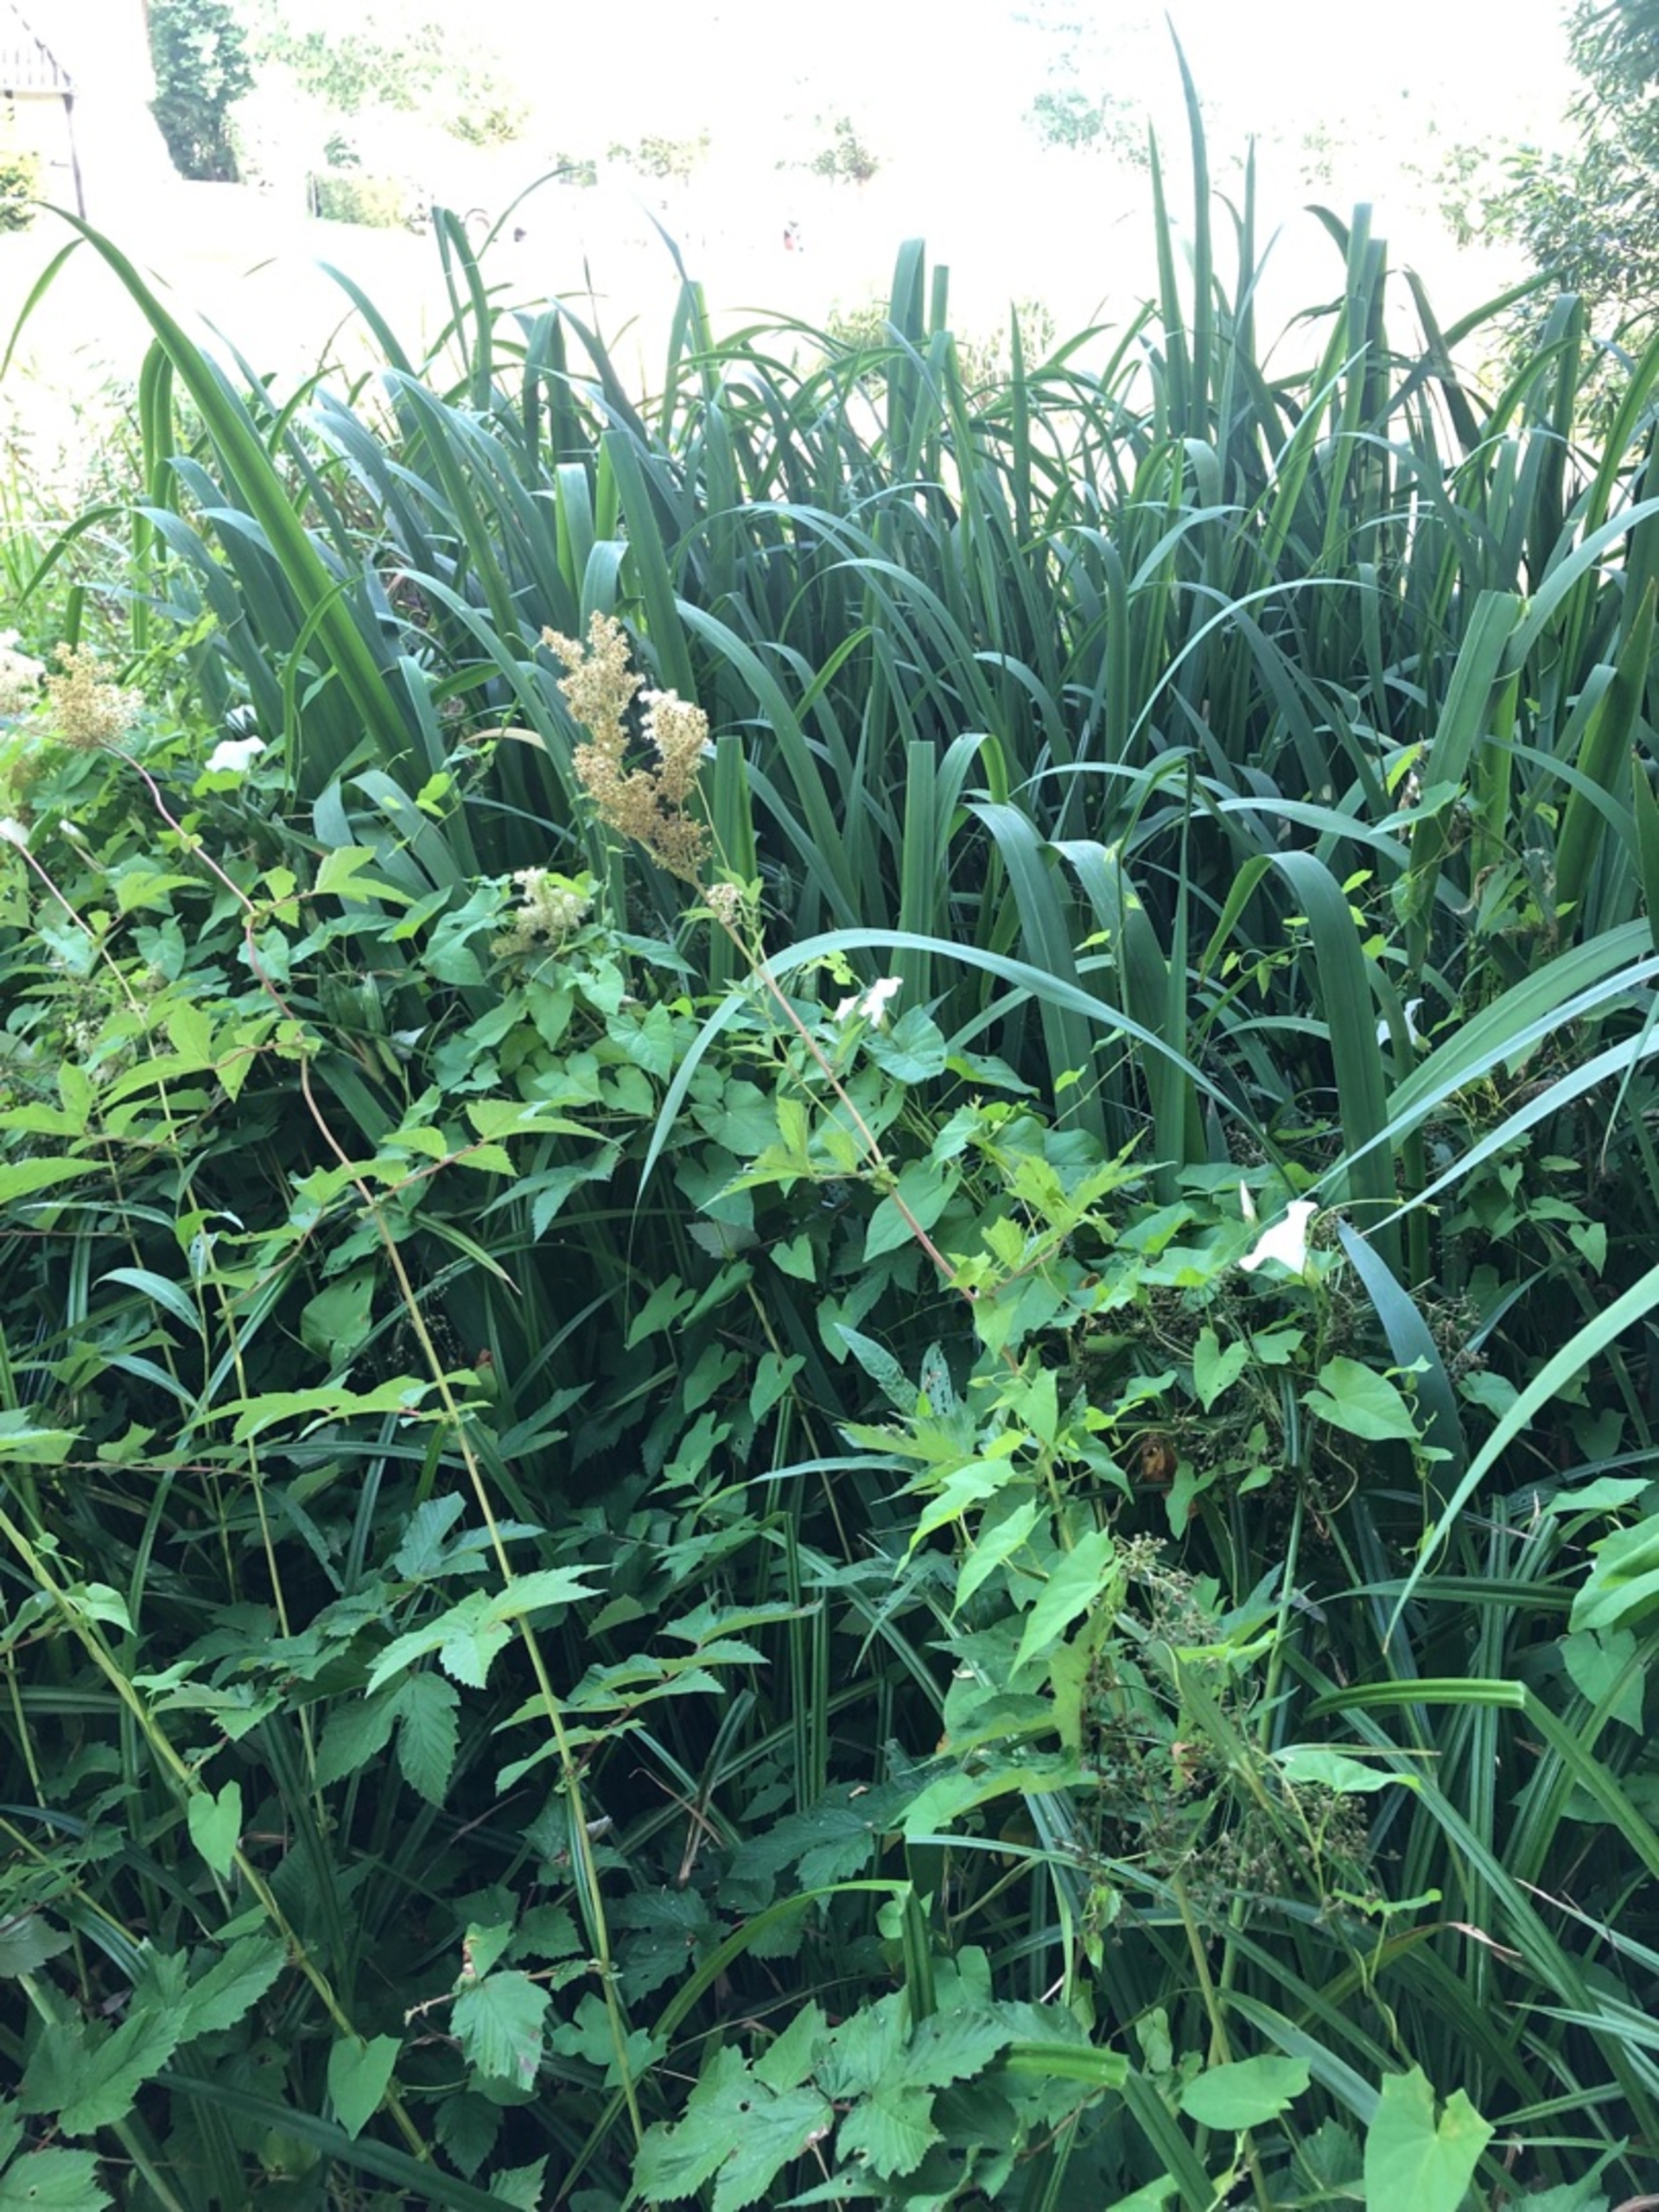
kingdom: Plantae
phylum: Tracheophyta
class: Magnoliopsida
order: Rosales
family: Rosaceae
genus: Filipendula
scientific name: Filipendula ulmaria
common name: Almindelig mjødurt
